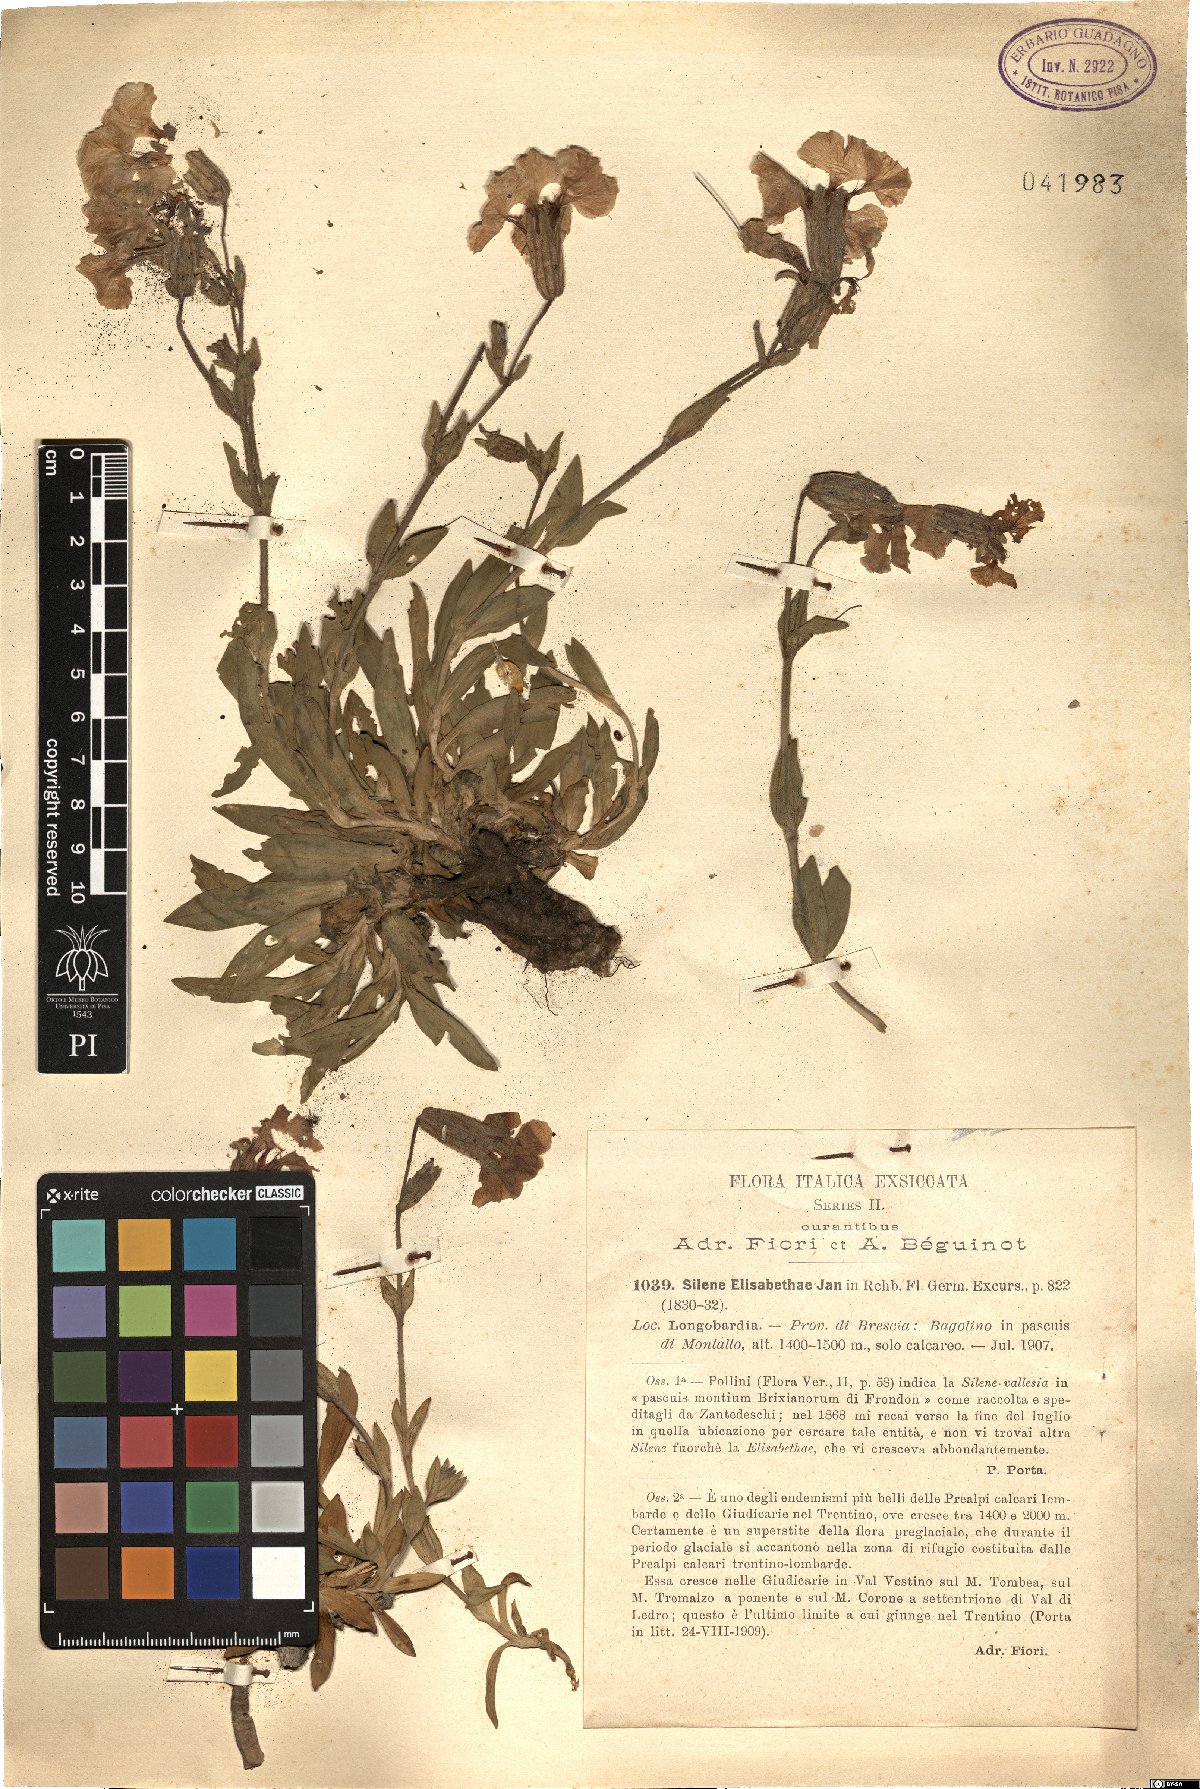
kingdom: Plantae
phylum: Tracheophyta
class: Magnoliopsida
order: Caryophyllales
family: Caryophyllaceae
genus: Silene
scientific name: Silene elisabethae
